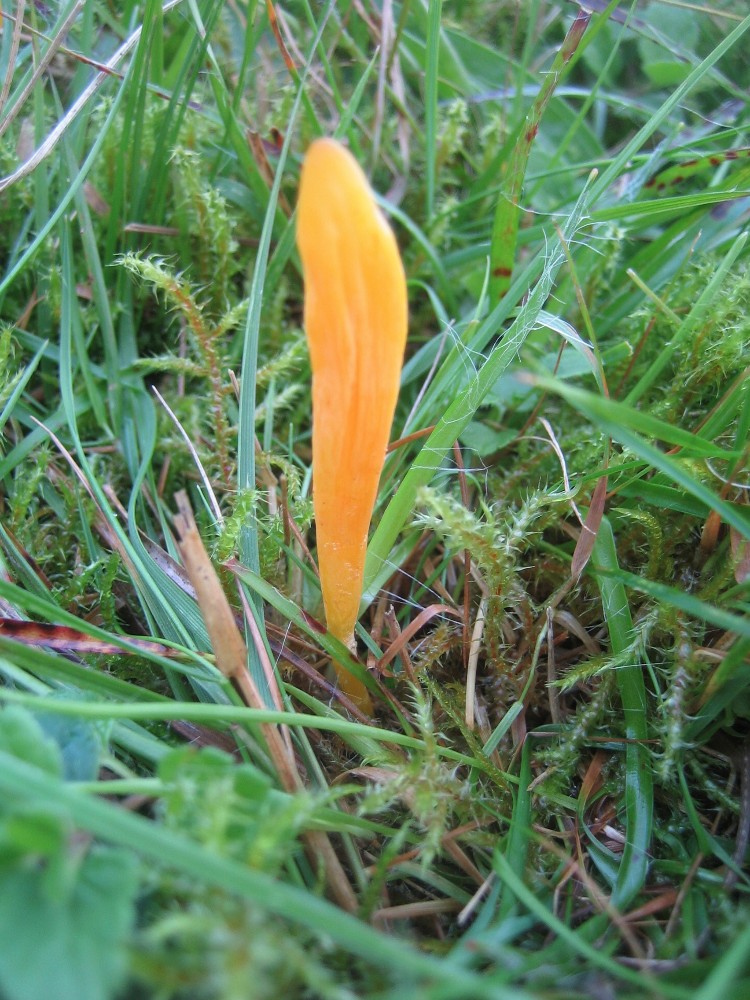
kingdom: Fungi
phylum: Basidiomycota
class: Agaricomycetes
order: Agaricales
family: Clavariaceae
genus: Clavulinopsis
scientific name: Clavulinopsis
